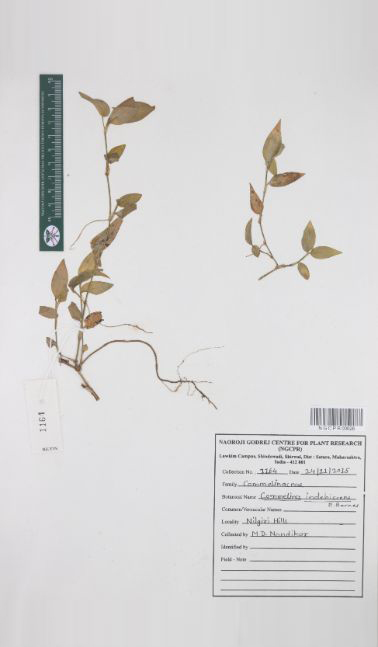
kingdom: Plantae
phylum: Tracheophyta
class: Liliopsida
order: Commelinales
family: Commelinaceae
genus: Commelina
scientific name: Commelina indehiscens
